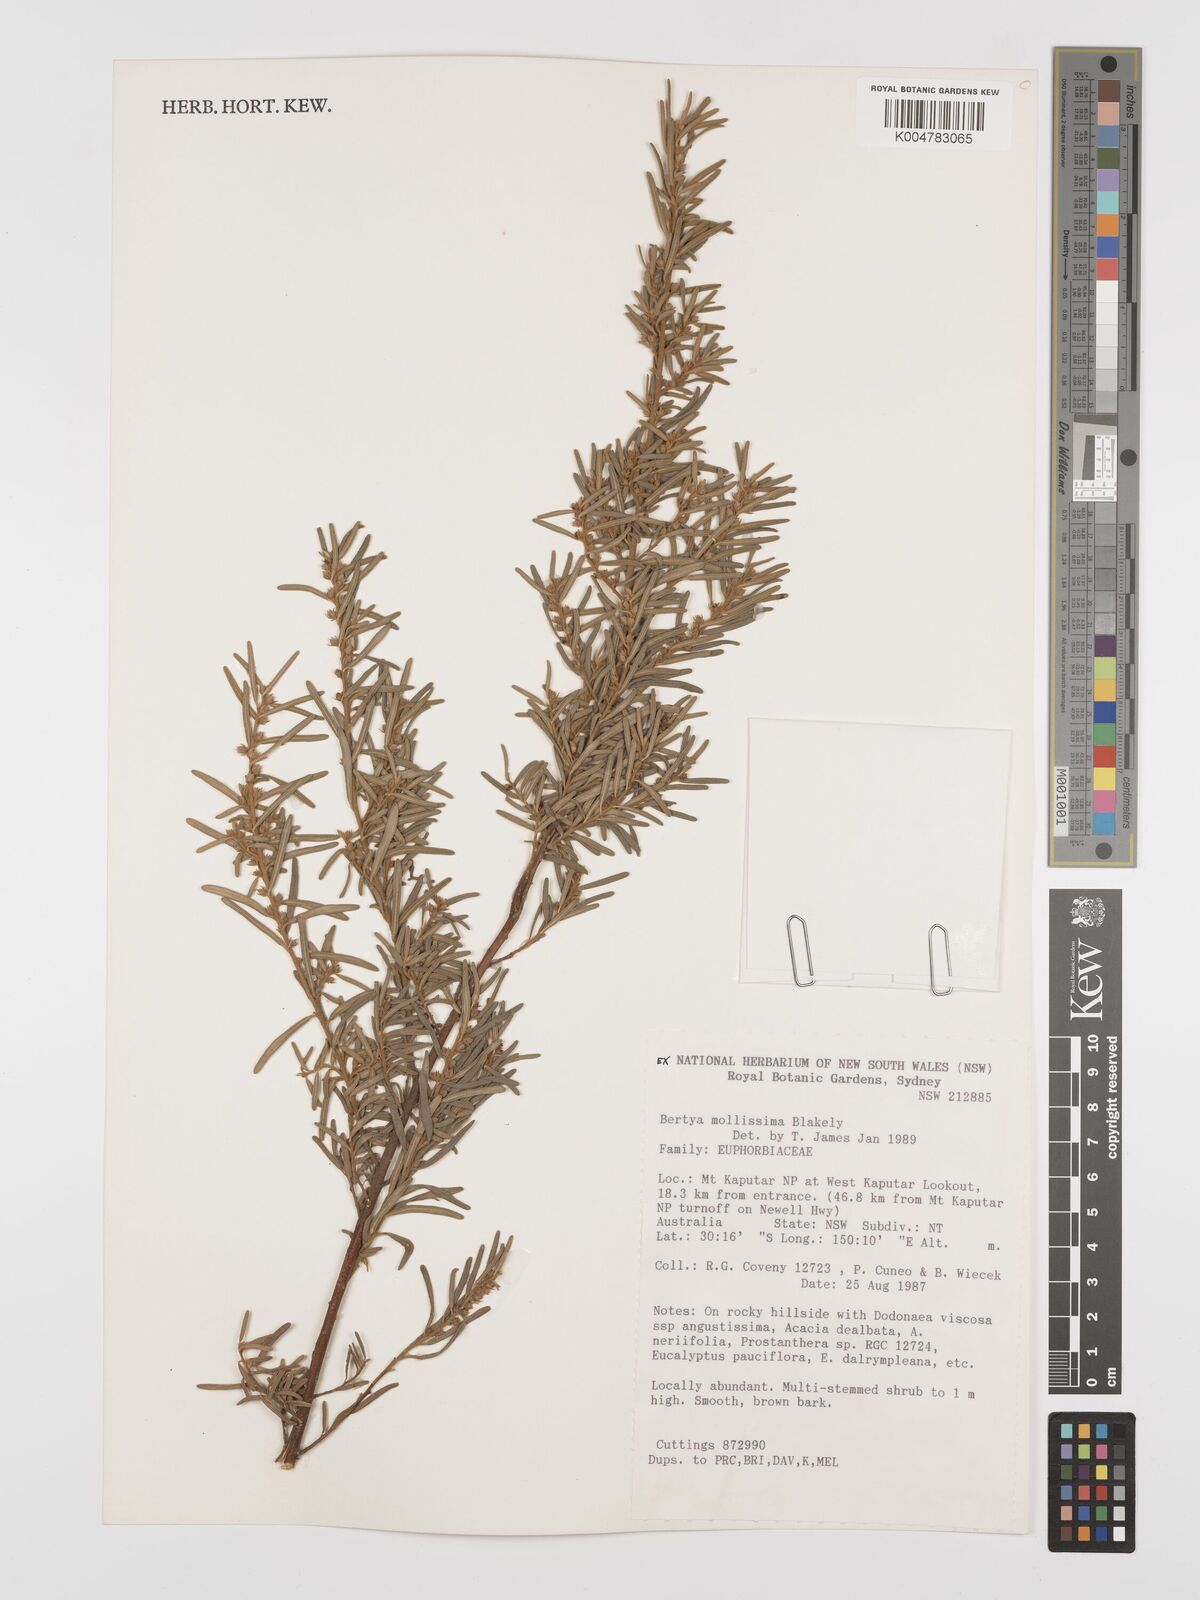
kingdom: Plantae
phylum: Tracheophyta
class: Magnoliopsida
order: Malpighiales
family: Euphorbiaceae
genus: Bertya
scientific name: Bertya mollissima
